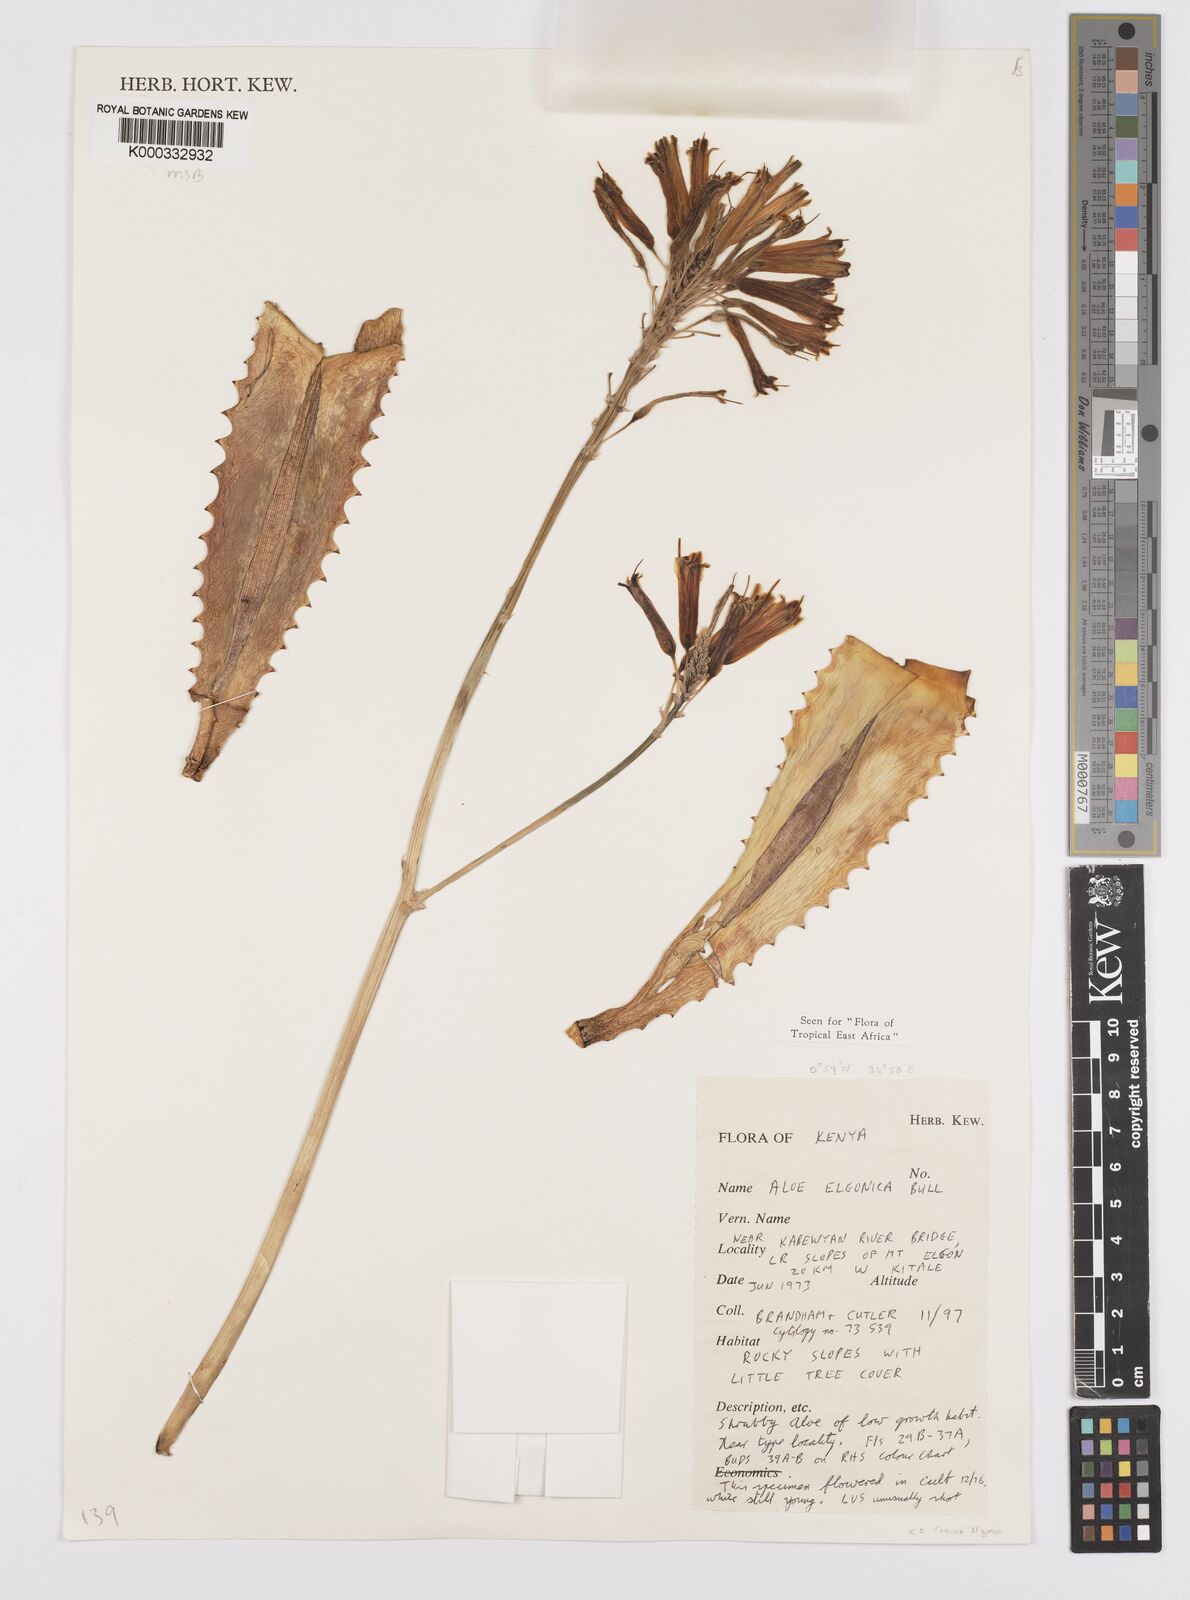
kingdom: Plantae
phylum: Tracheophyta
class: Liliopsida
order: Asparagales
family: Asphodelaceae
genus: Aloe
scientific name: Aloe elgonica
